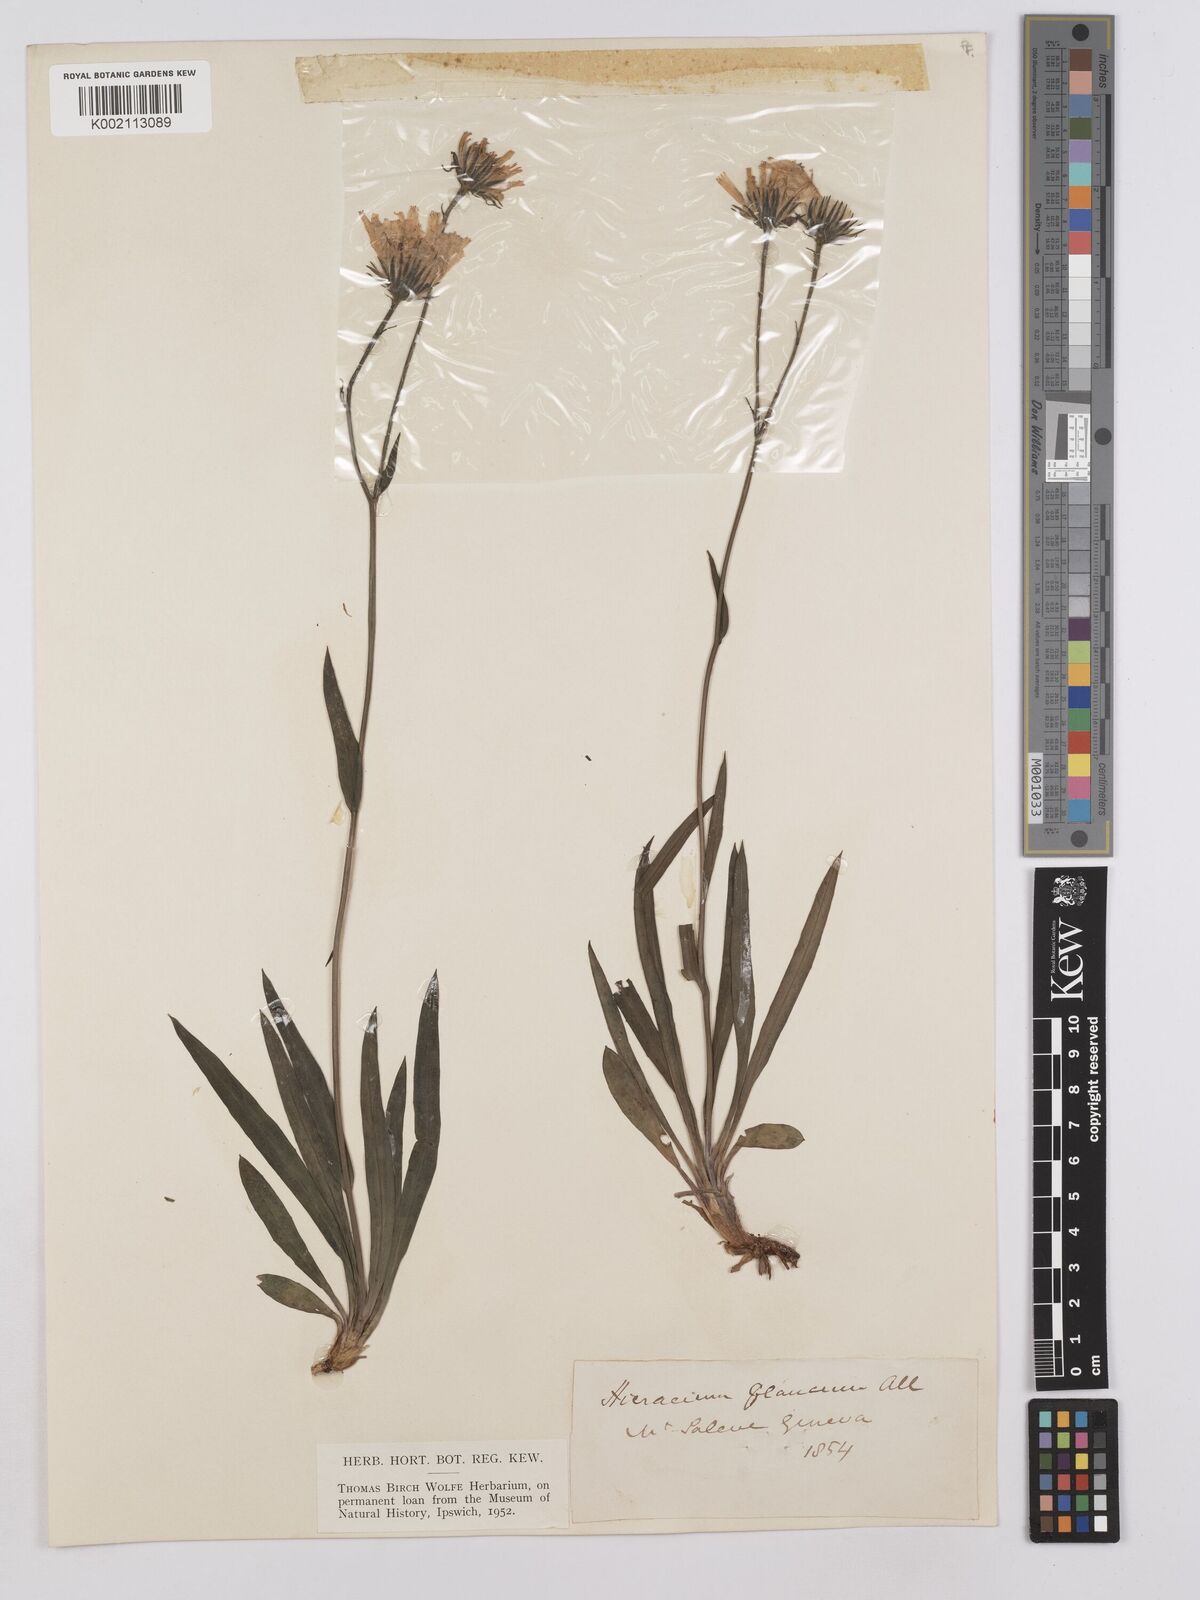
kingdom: Plantae
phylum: Tracheophyta
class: Magnoliopsida
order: Asterales
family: Asteraceae
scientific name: Asteraceae
